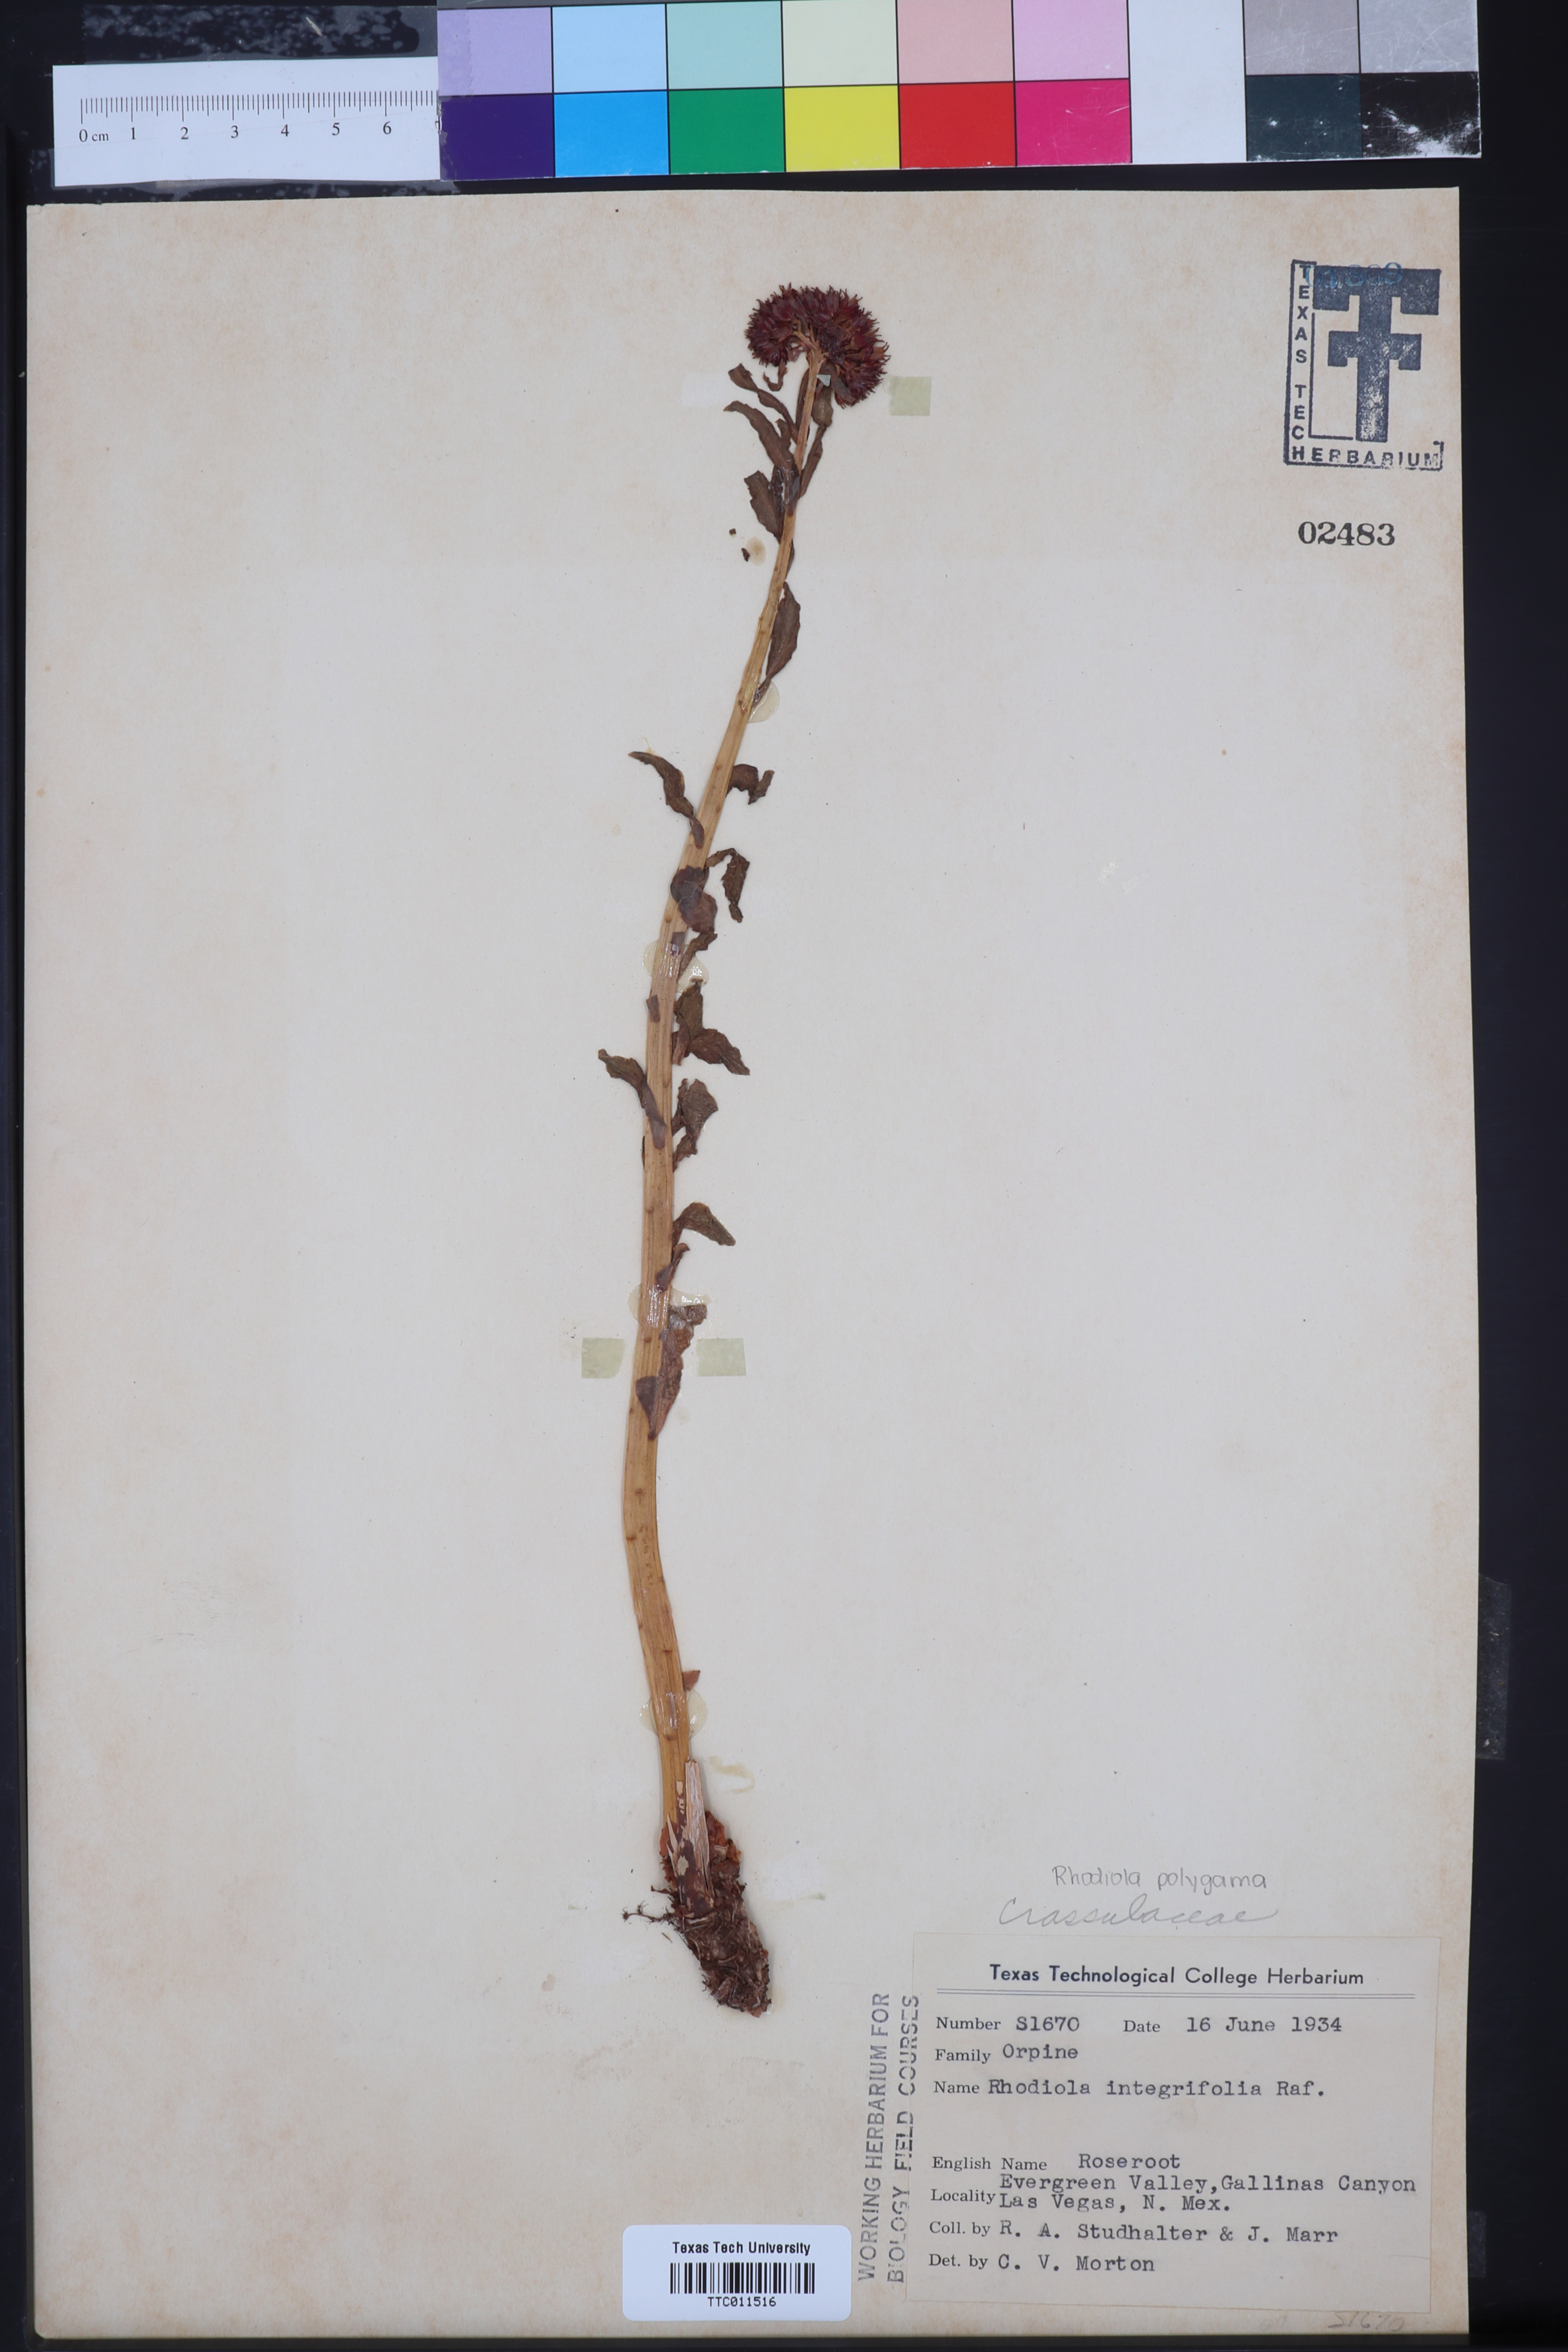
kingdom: Plantae
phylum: Tracheophyta
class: Magnoliopsida
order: Saxifragales
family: Crassulaceae
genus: Rhodiola
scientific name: Rhodiola integrifolia
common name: Western roseroot
